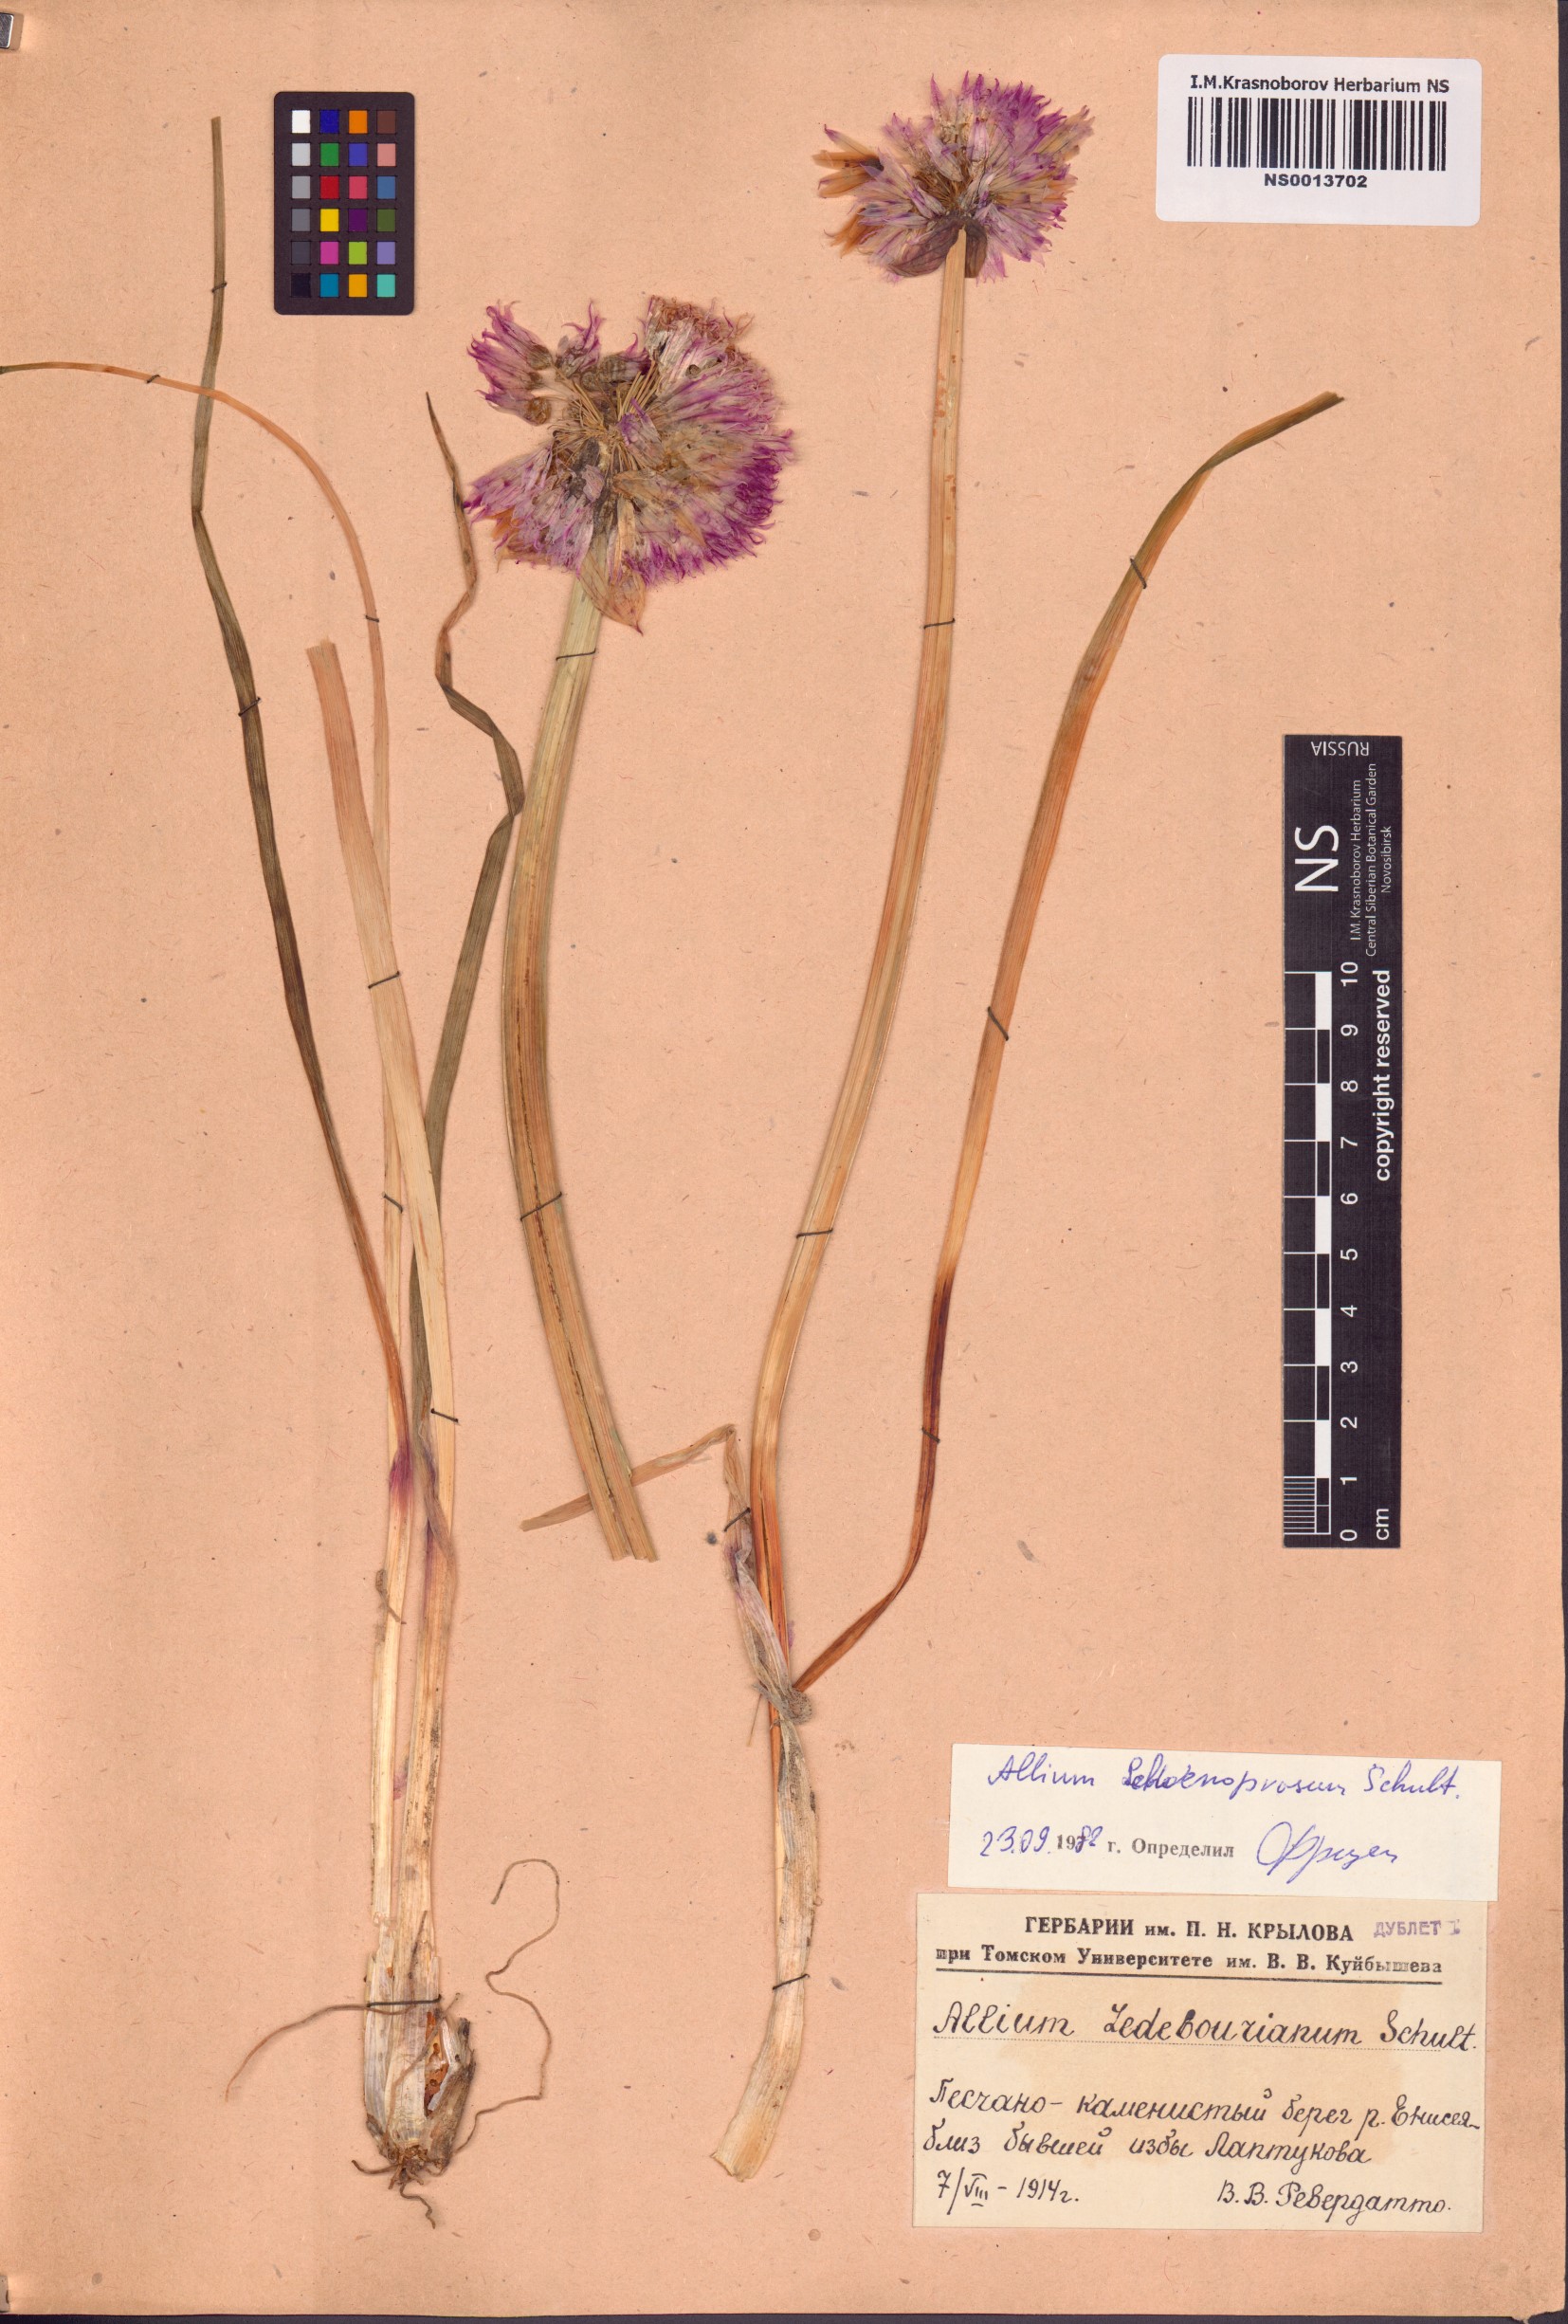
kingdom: Plantae
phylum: Tracheophyta
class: Liliopsida
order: Asparagales
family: Amaryllidaceae
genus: Allium
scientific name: Allium schoenoprasum
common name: Chives
